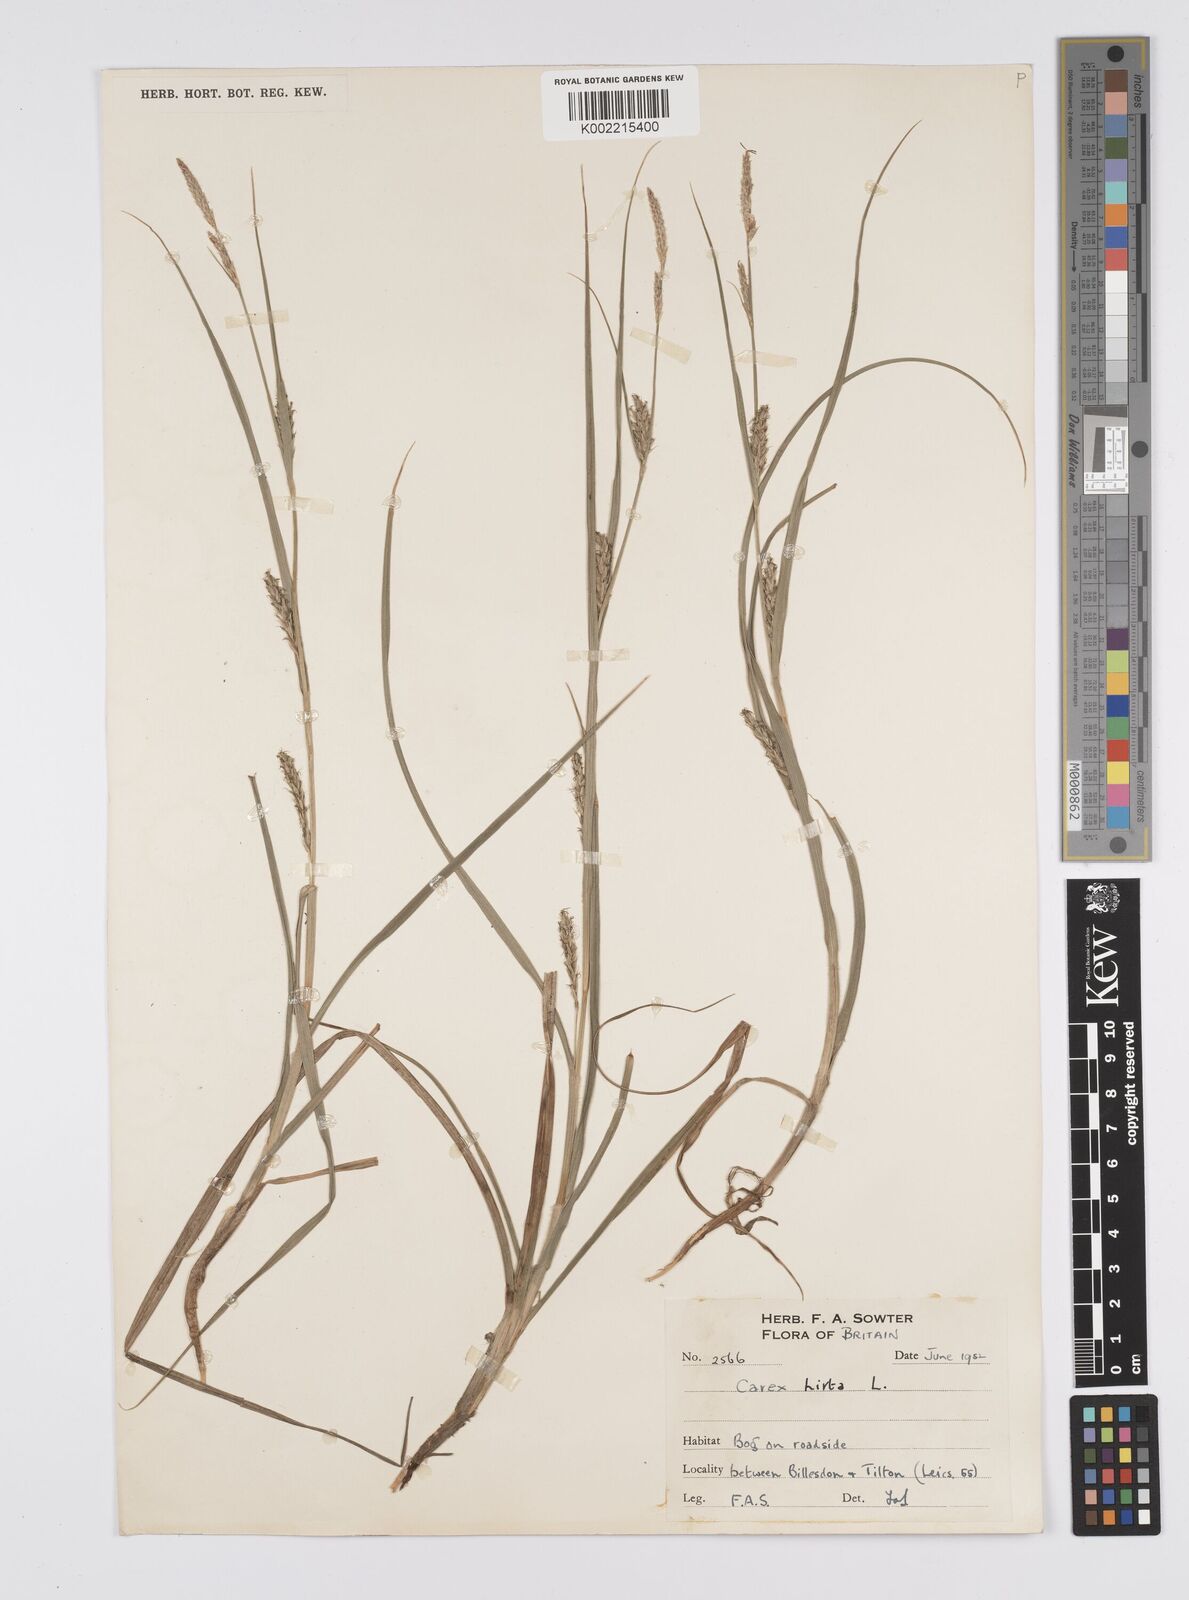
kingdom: Plantae
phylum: Tracheophyta
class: Liliopsida
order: Poales
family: Cyperaceae
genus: Carex
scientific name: Carex hirta
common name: Hairy sedge
